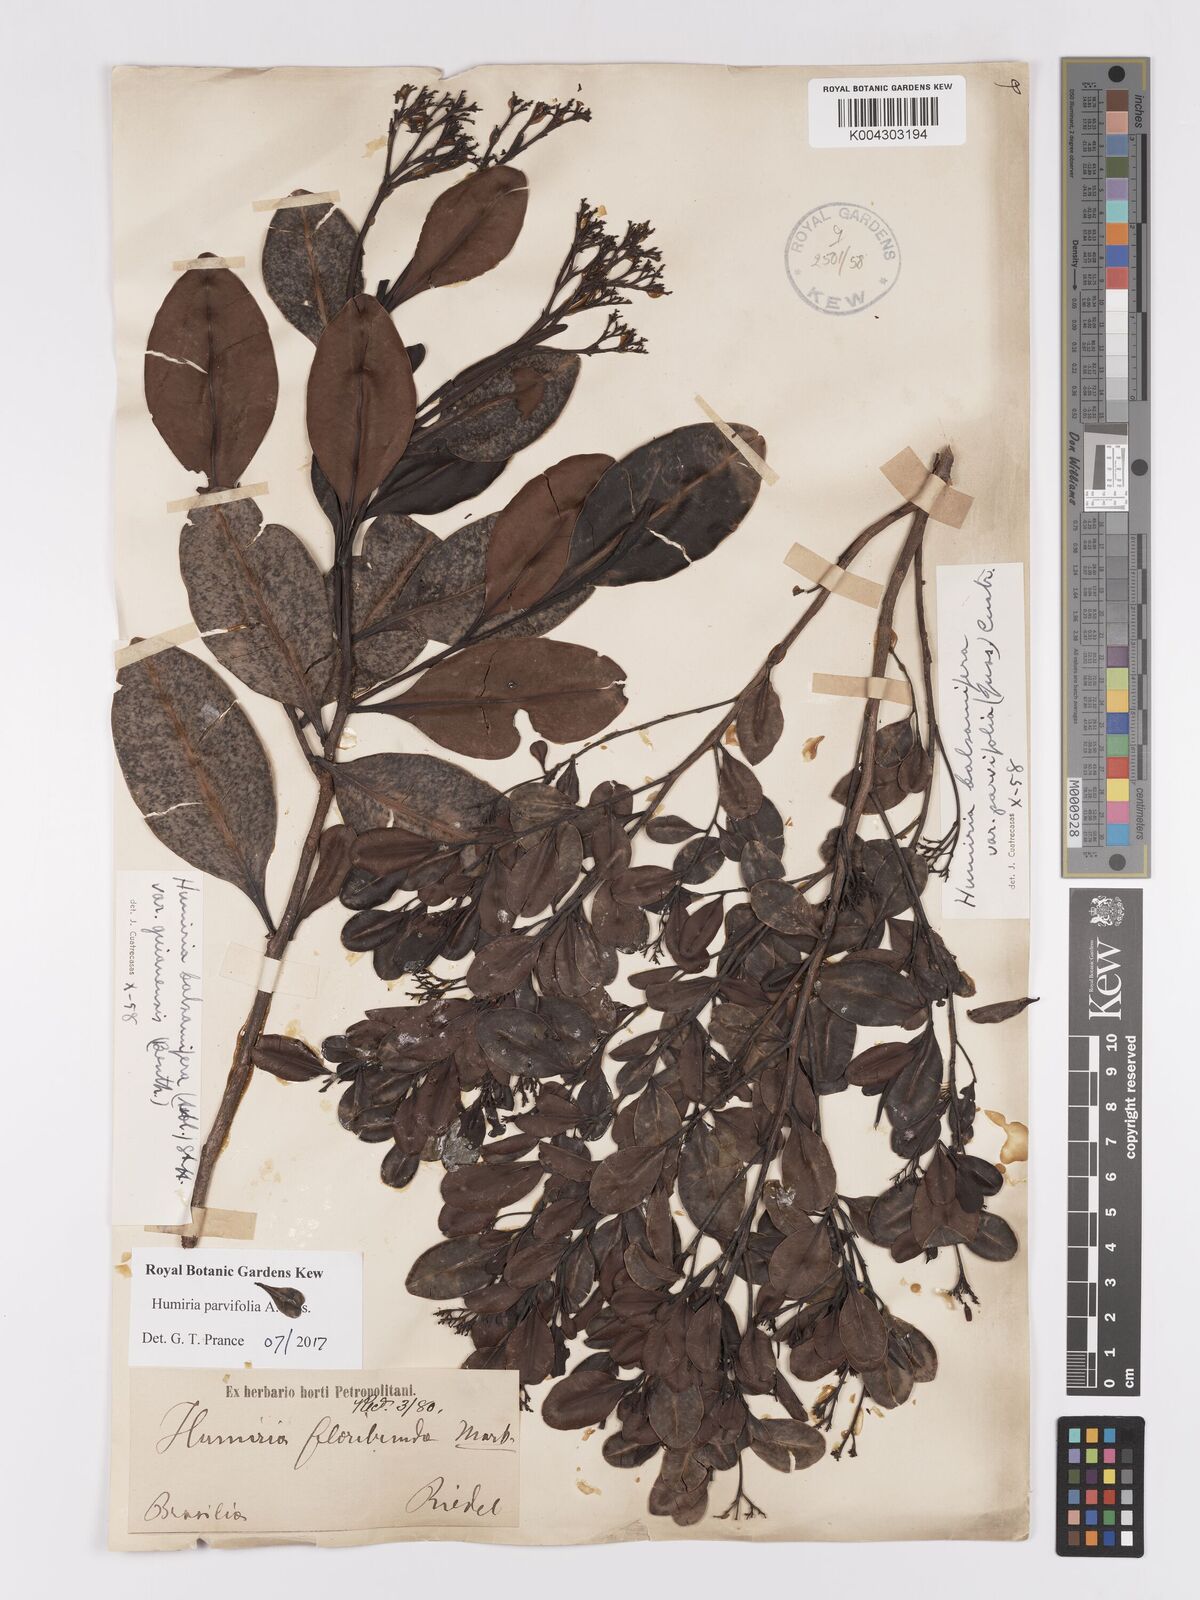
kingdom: Plantae
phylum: Tracheophyta
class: Magnoliopsida
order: Malpighiales
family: Humiriaceae
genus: Humiria
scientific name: Humiria parvifolia
